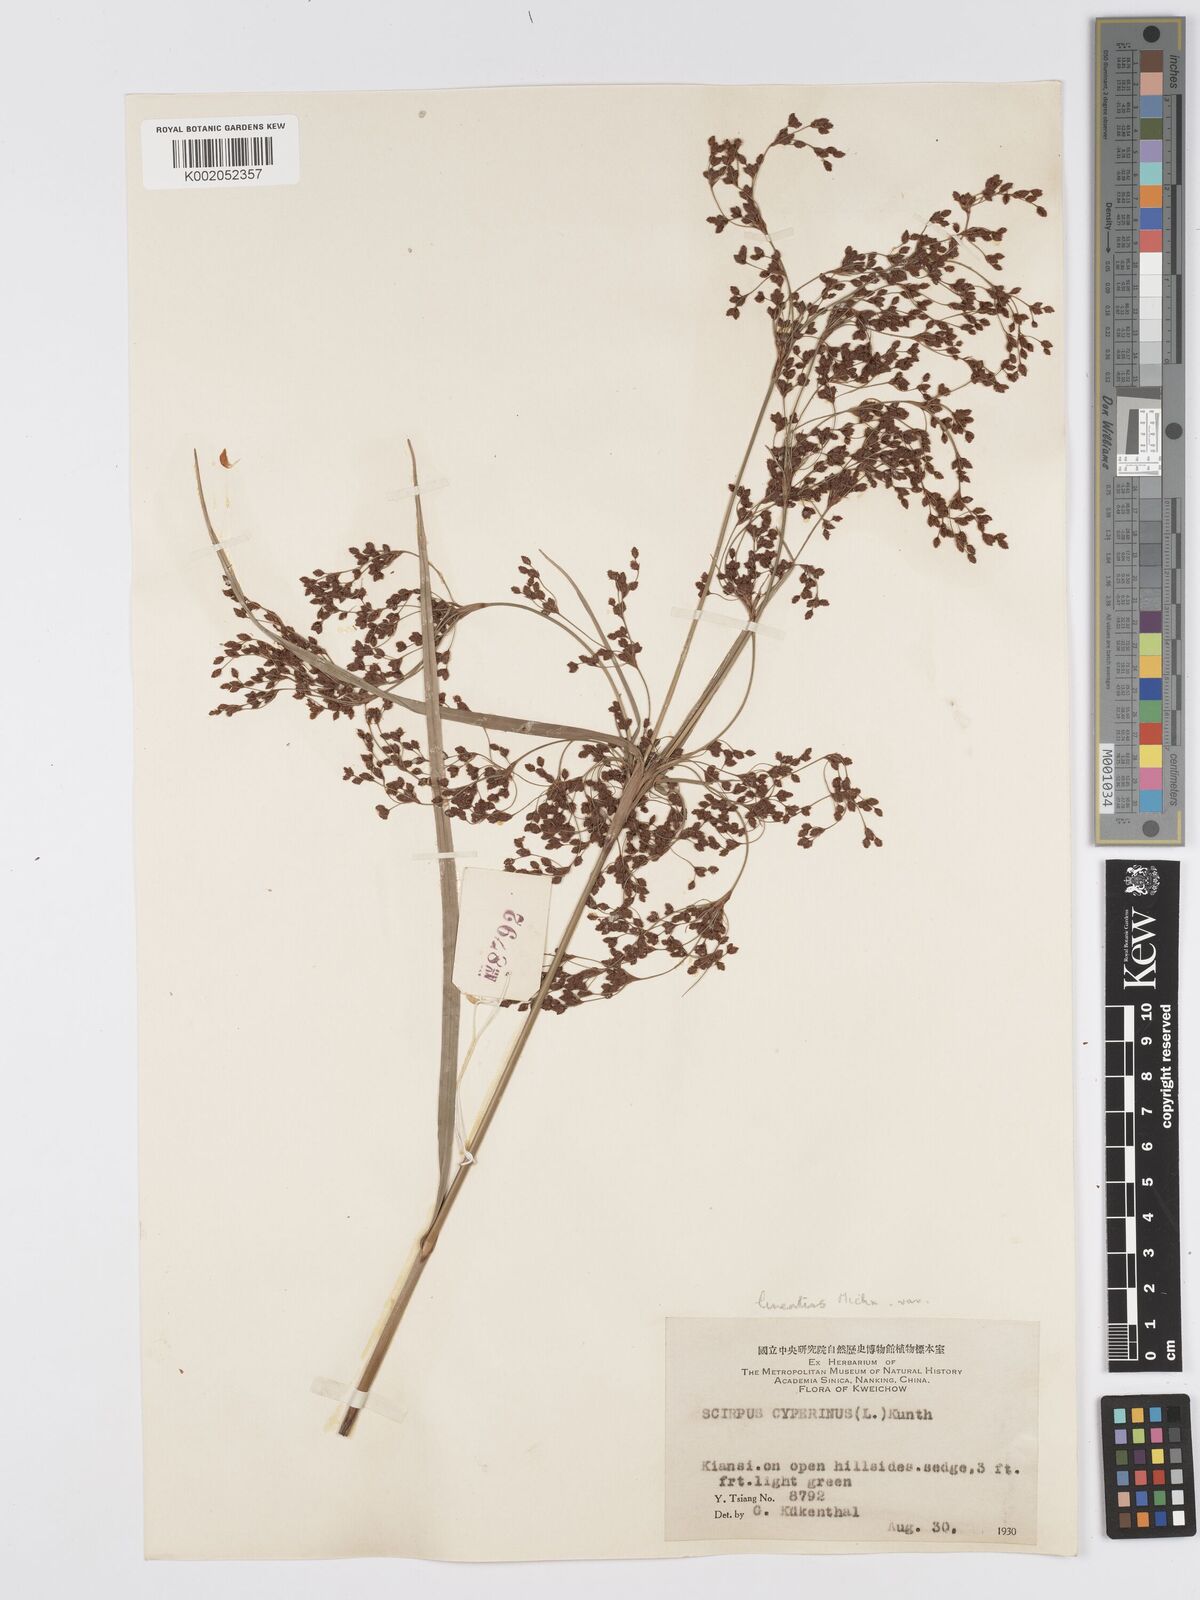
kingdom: Plantae
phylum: Tracheophyta
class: Liliopsida
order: Poales
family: Cyperaceae
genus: Scirpus
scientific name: Scirpus lineatus
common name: Drooping bulrush
